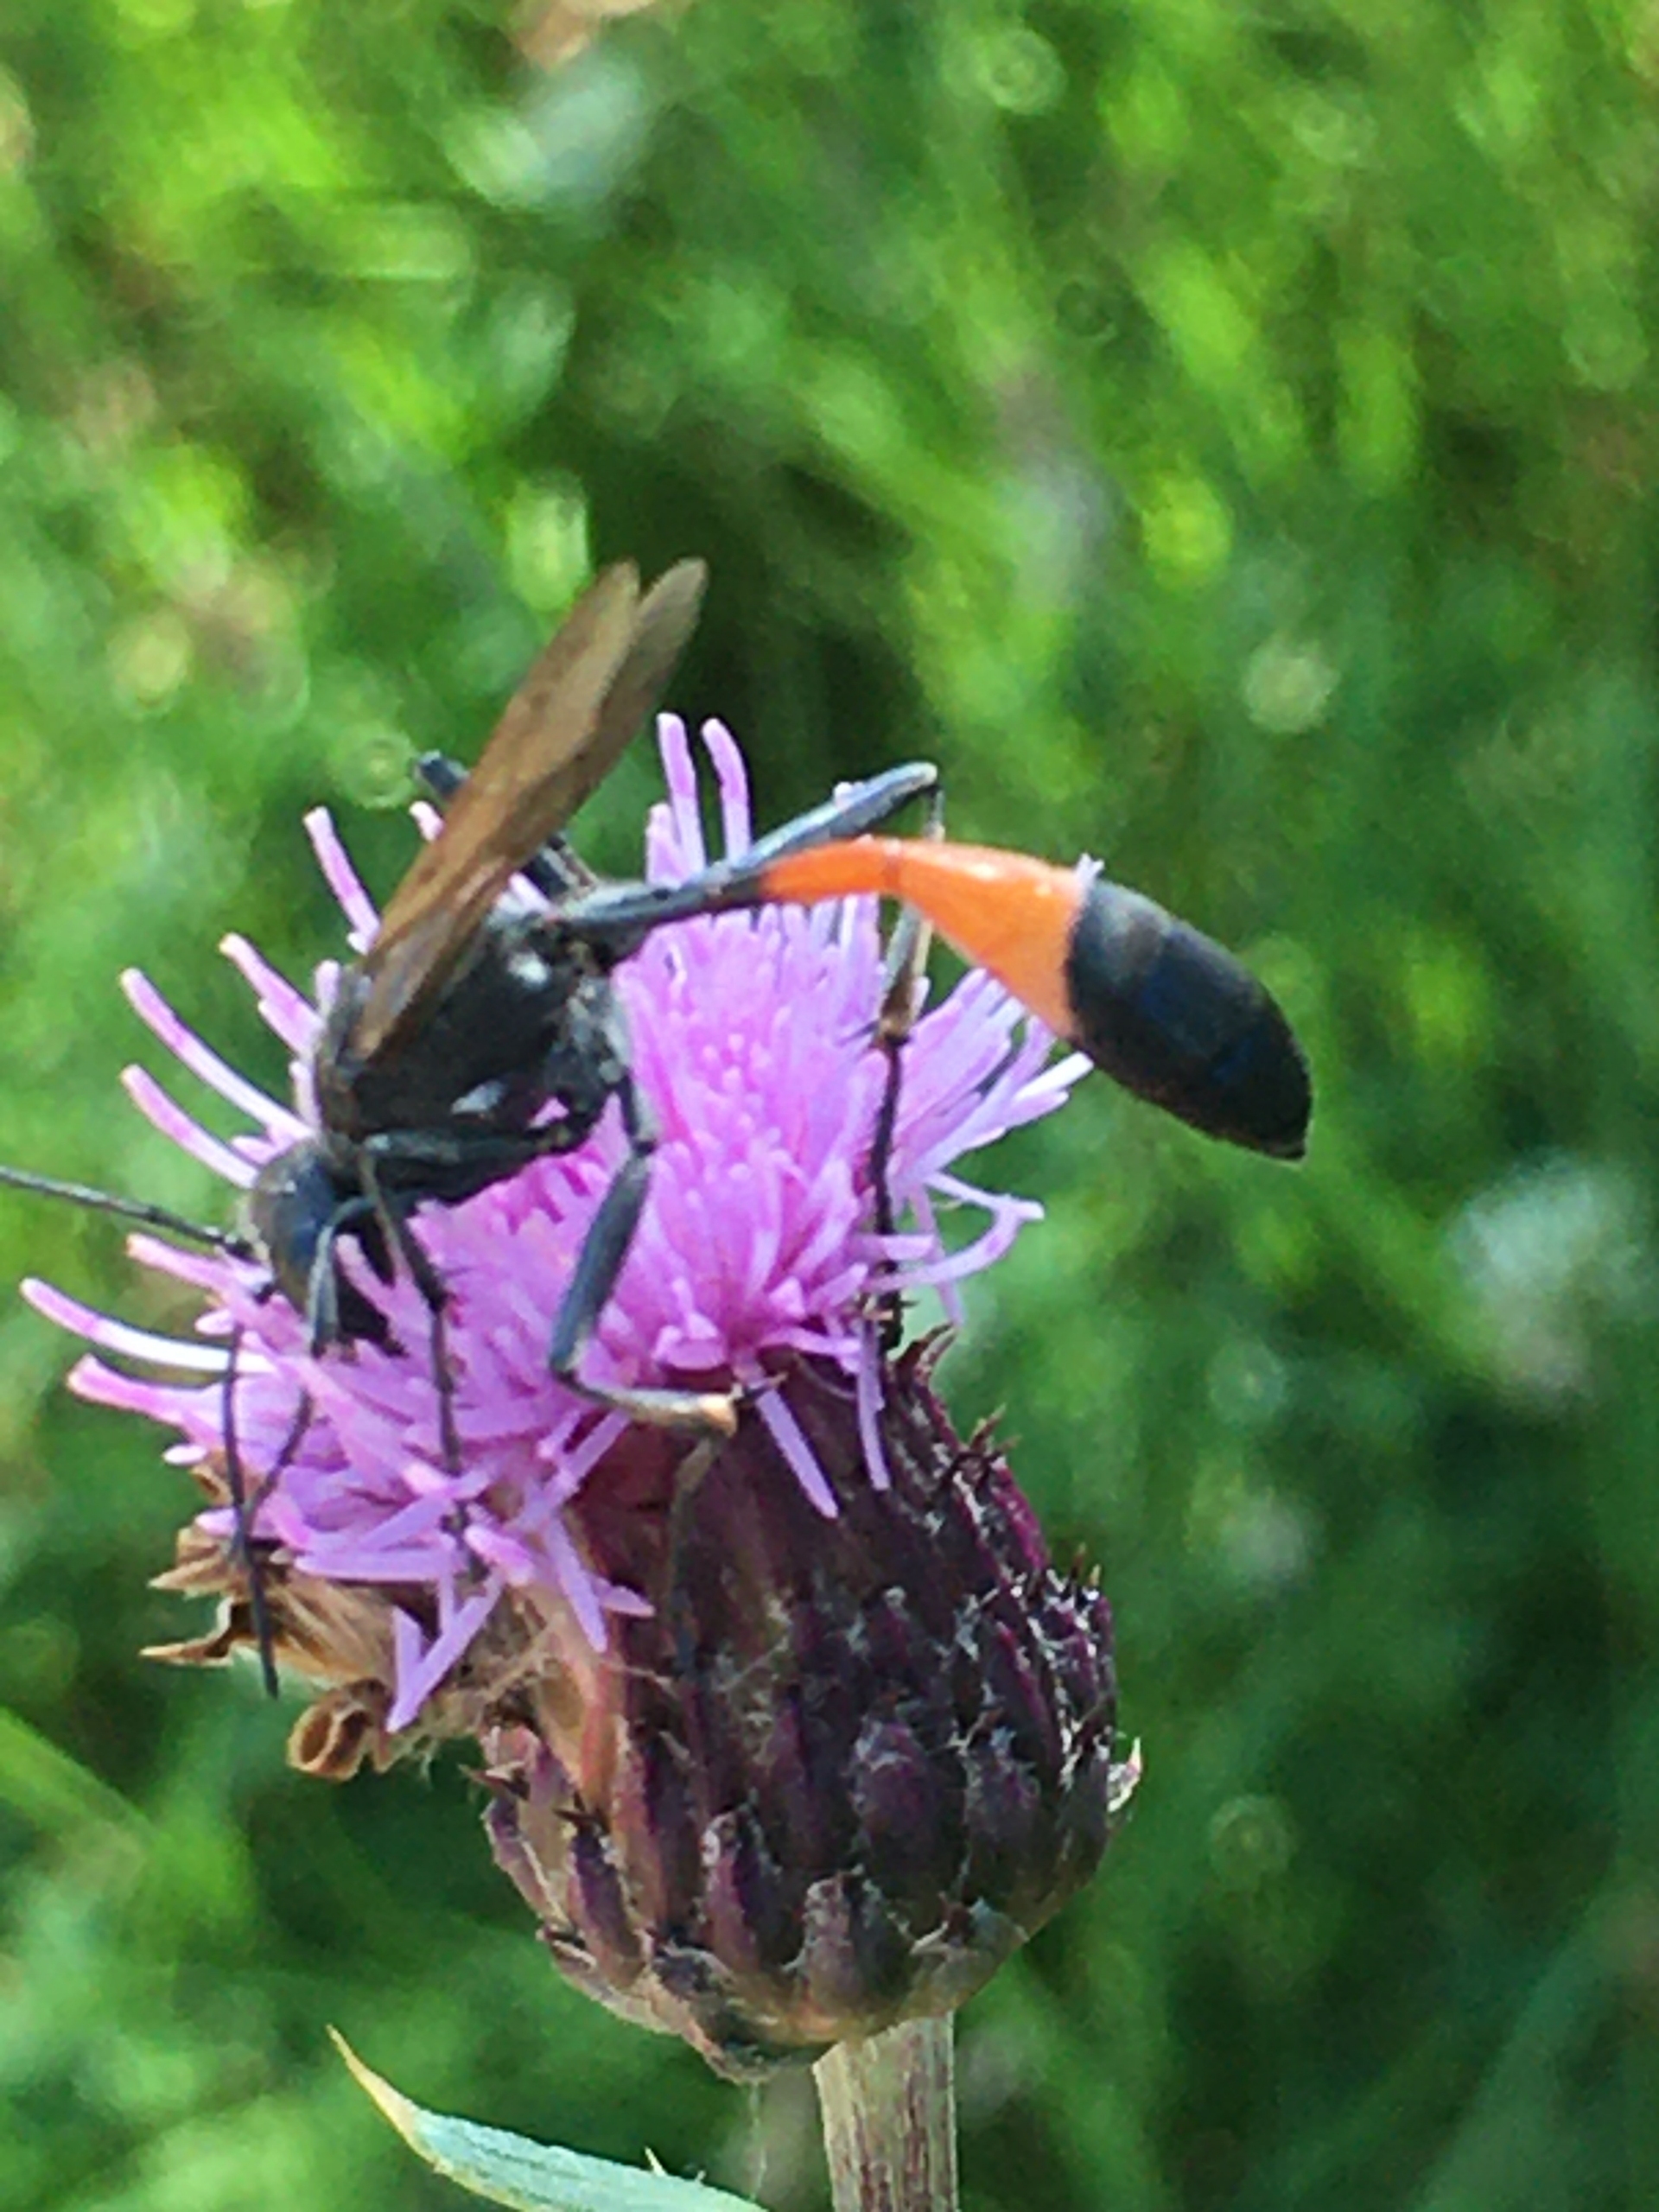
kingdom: Animalia
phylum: Arthropoda
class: Insecta
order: Hymenoptera
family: Sphecidae
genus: Ammophila
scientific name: Ammophila sabulosa
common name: Almindelig sandhveps
